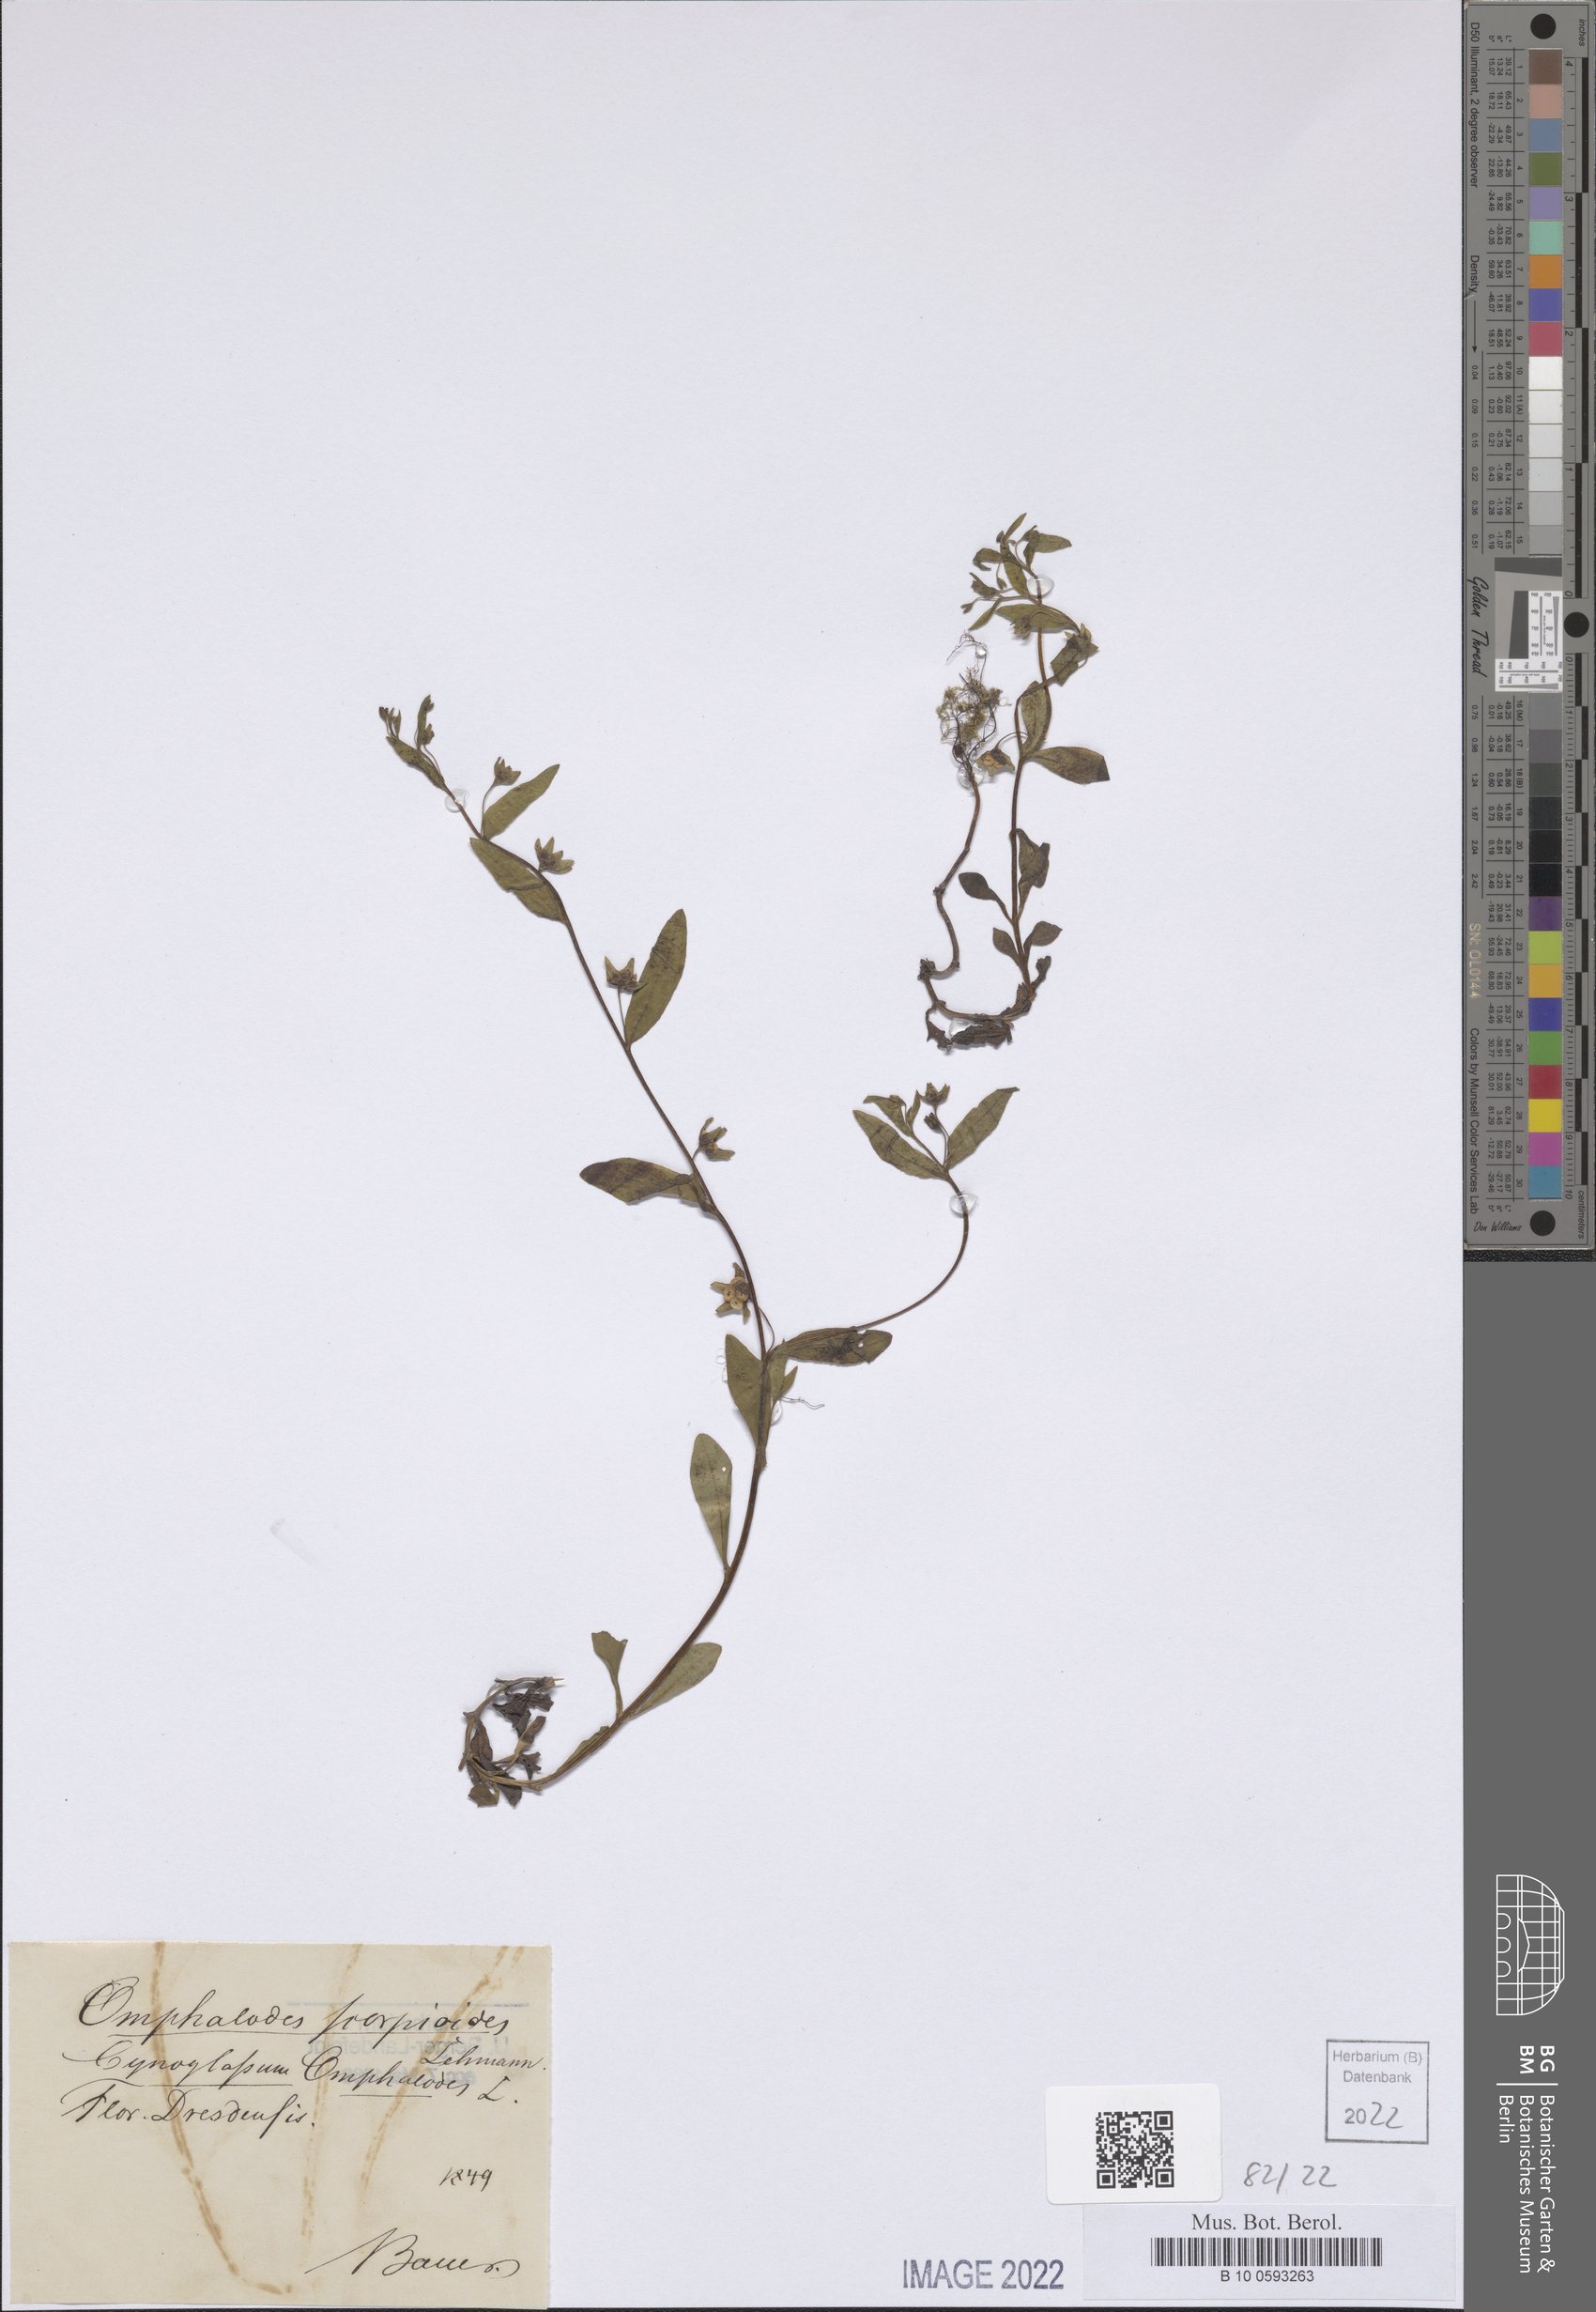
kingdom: Plantae
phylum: Tracheophyta
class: Magnoliopsida
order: Boraginales
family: Boraginaceae
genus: Memoremea
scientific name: Memoremea scorpioides
